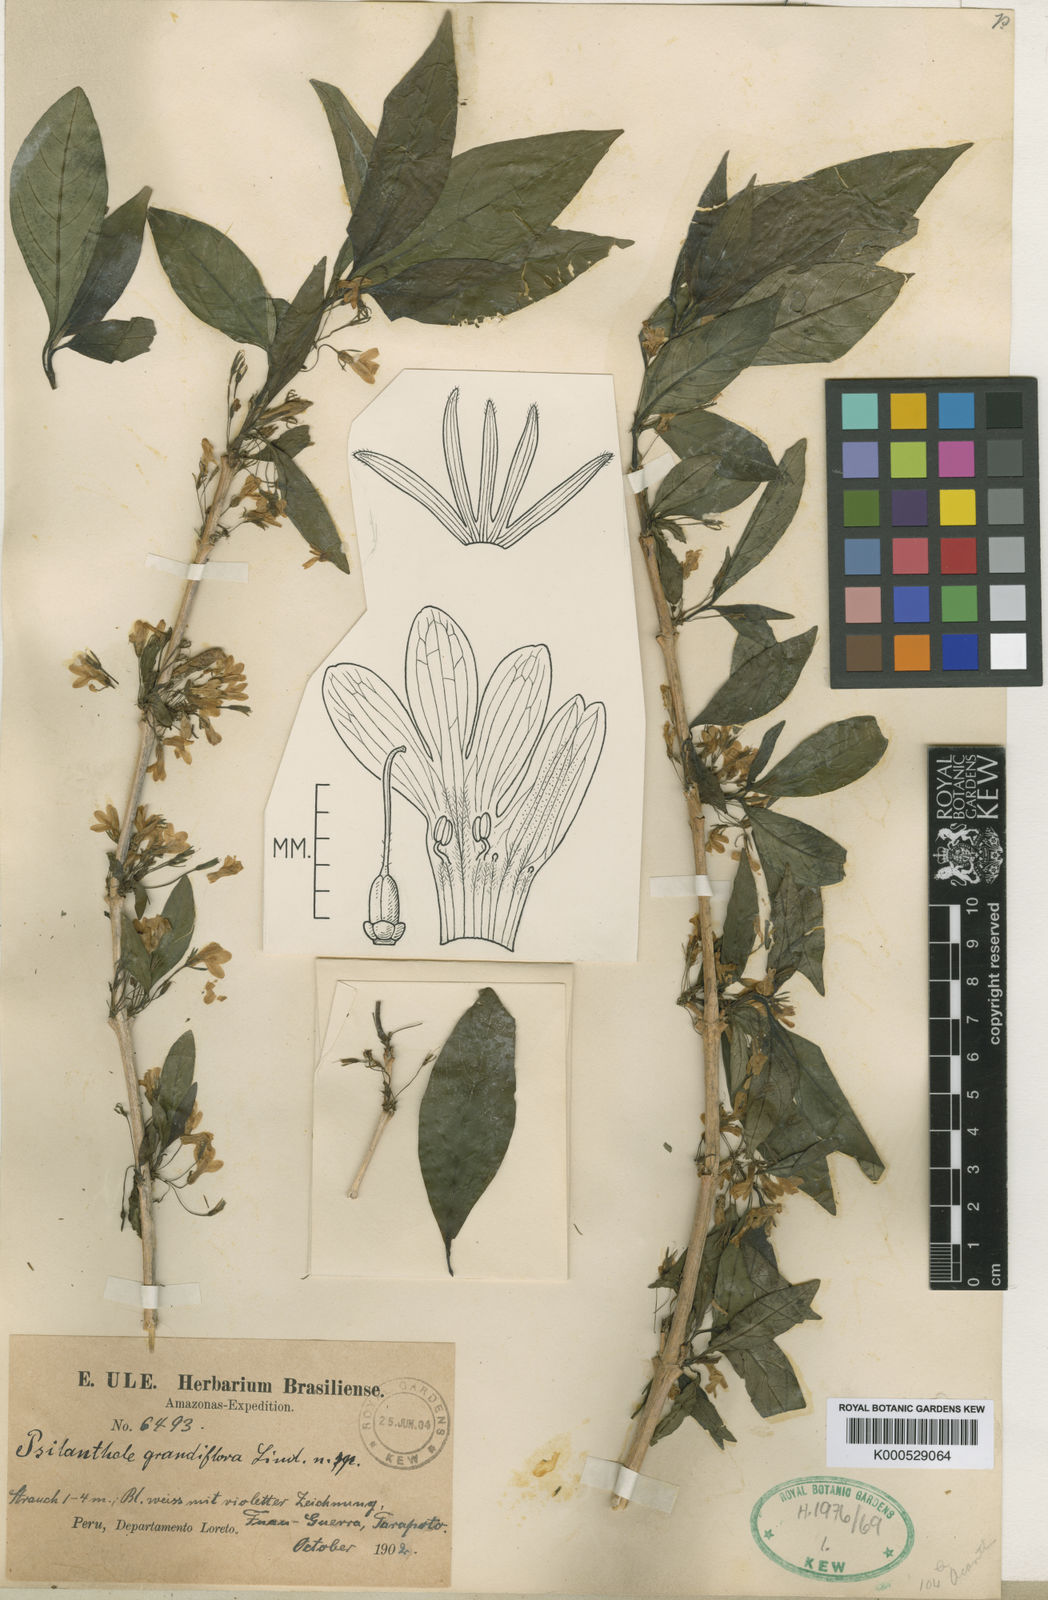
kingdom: Plantae
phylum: Tracheophyta
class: Magnoliopsida
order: Lamiales
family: Acanthaceae
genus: Oplonia
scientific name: Oplonia grandiflora
